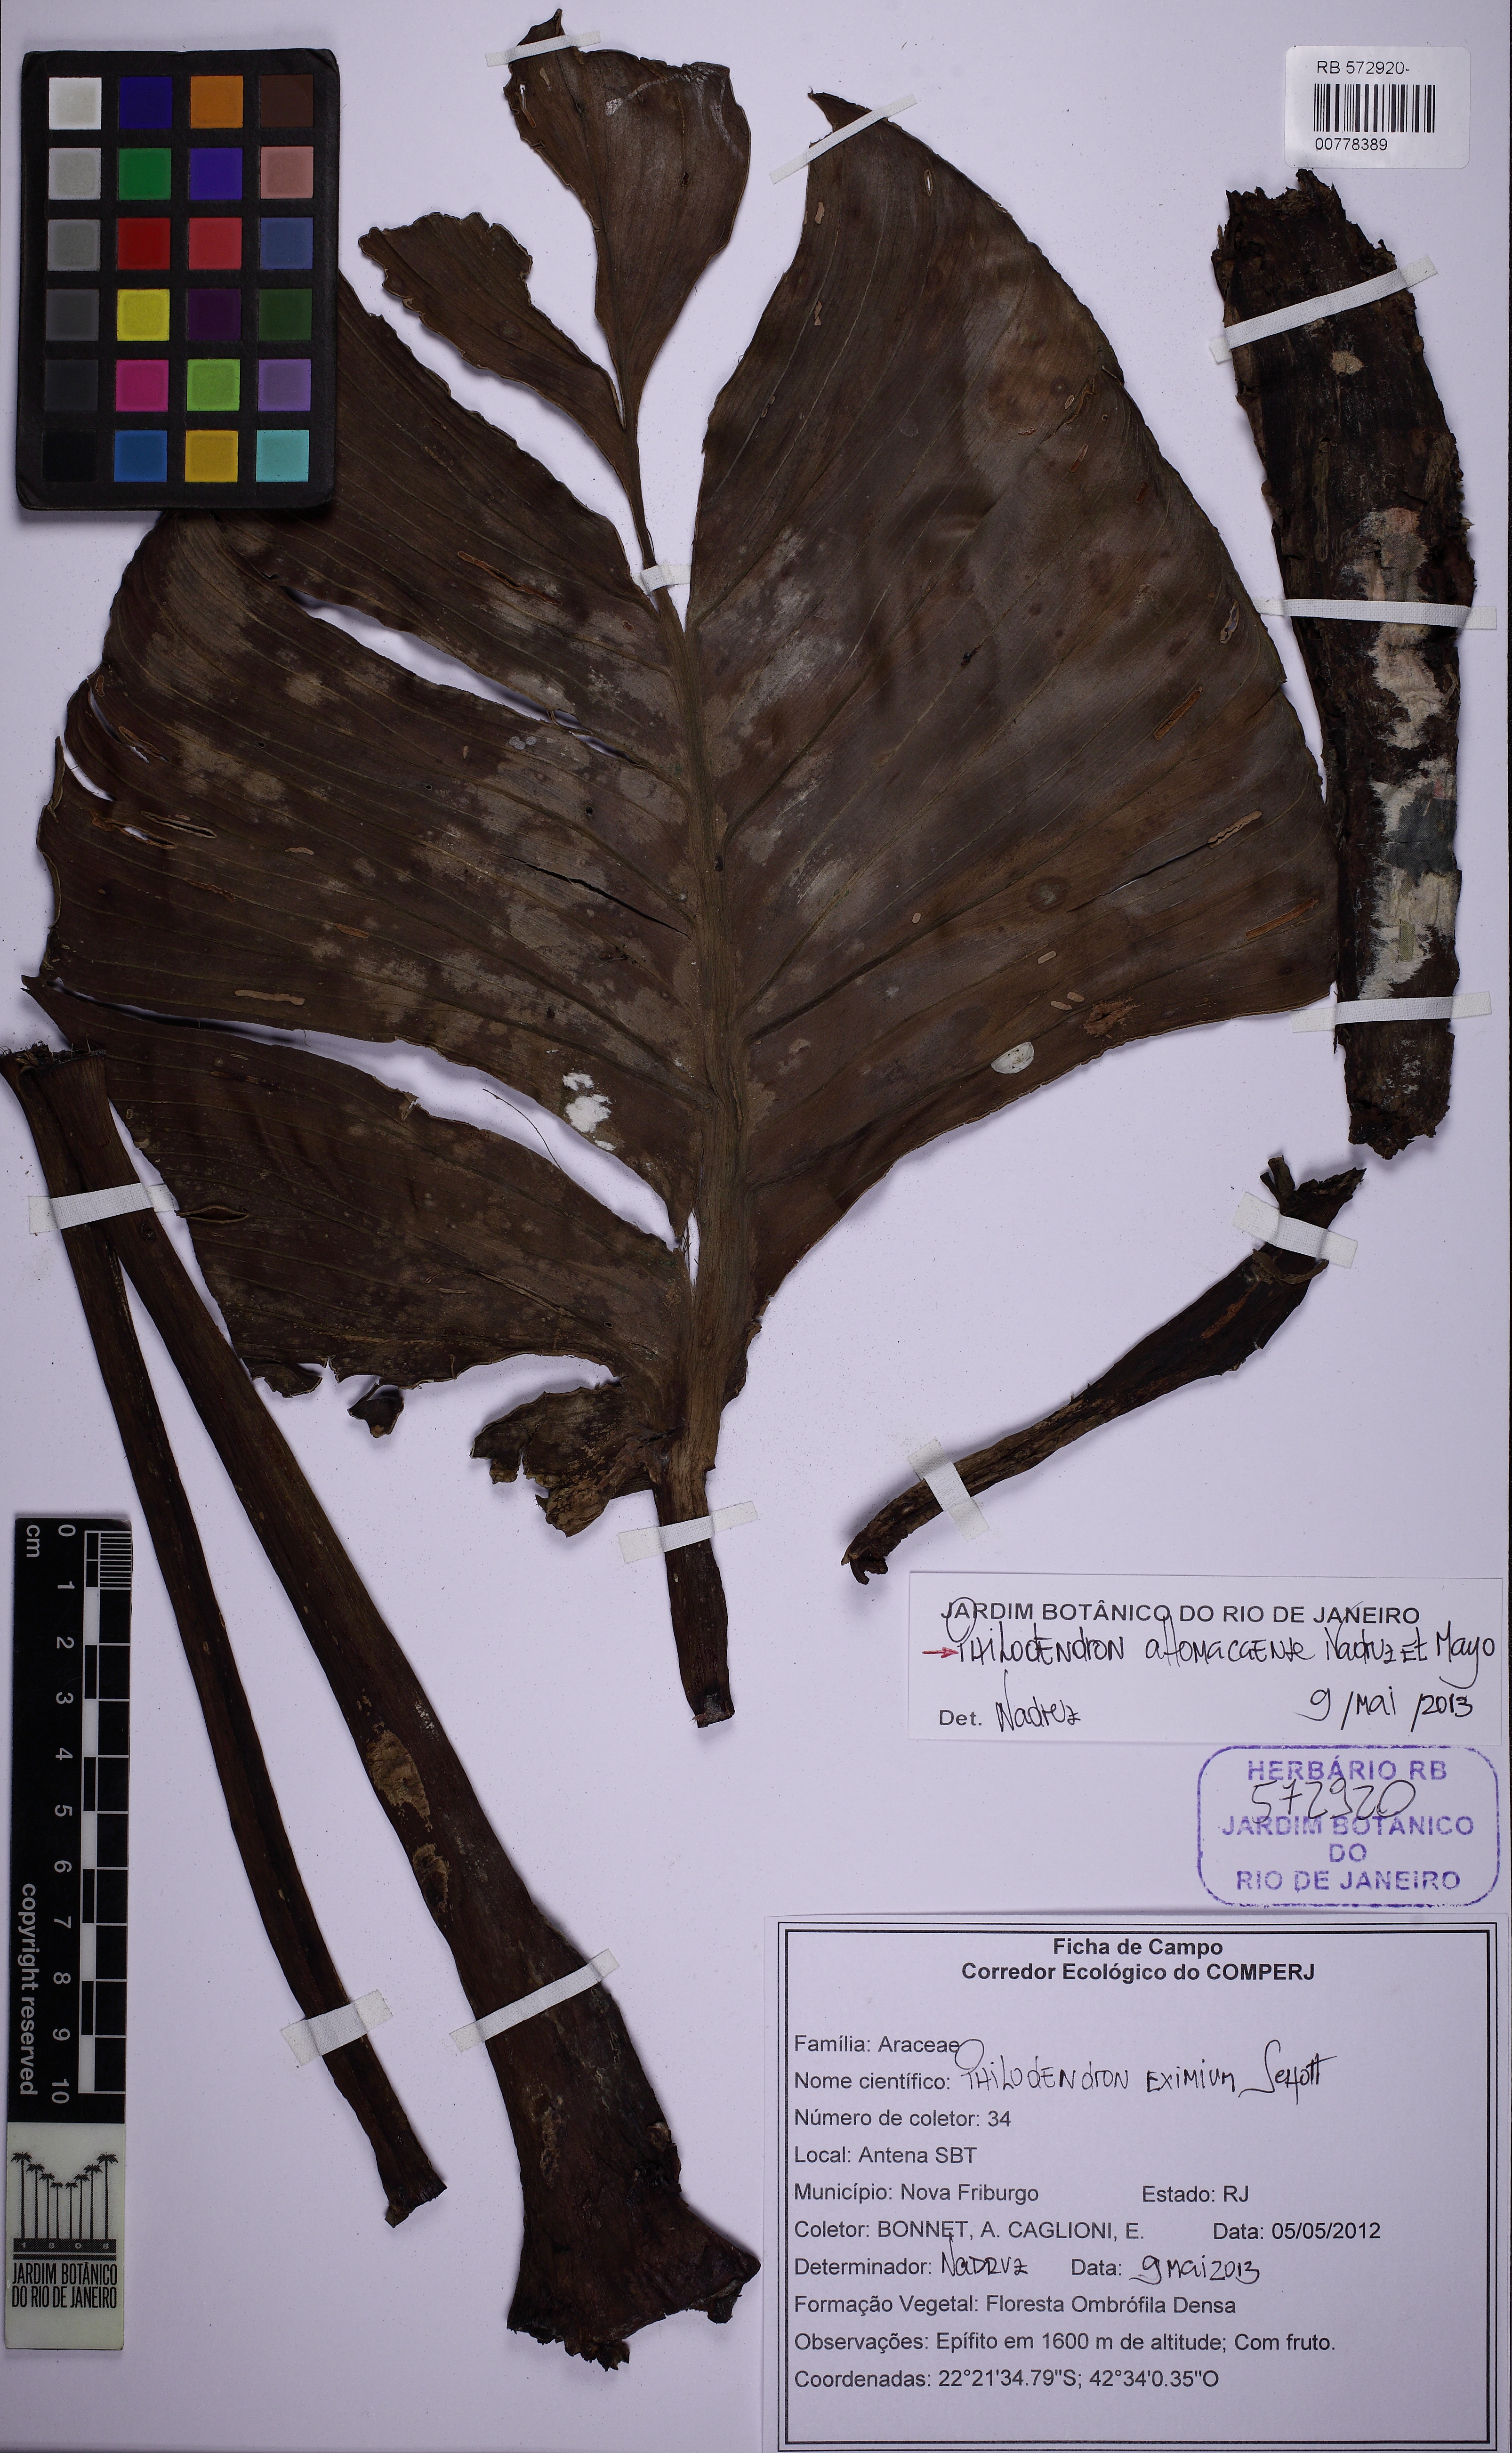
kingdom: Plantae
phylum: Tracheophyta
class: Liliopsida
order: Alismatales
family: Araceae
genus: Philodendron
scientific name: Philodendron altomacaense
